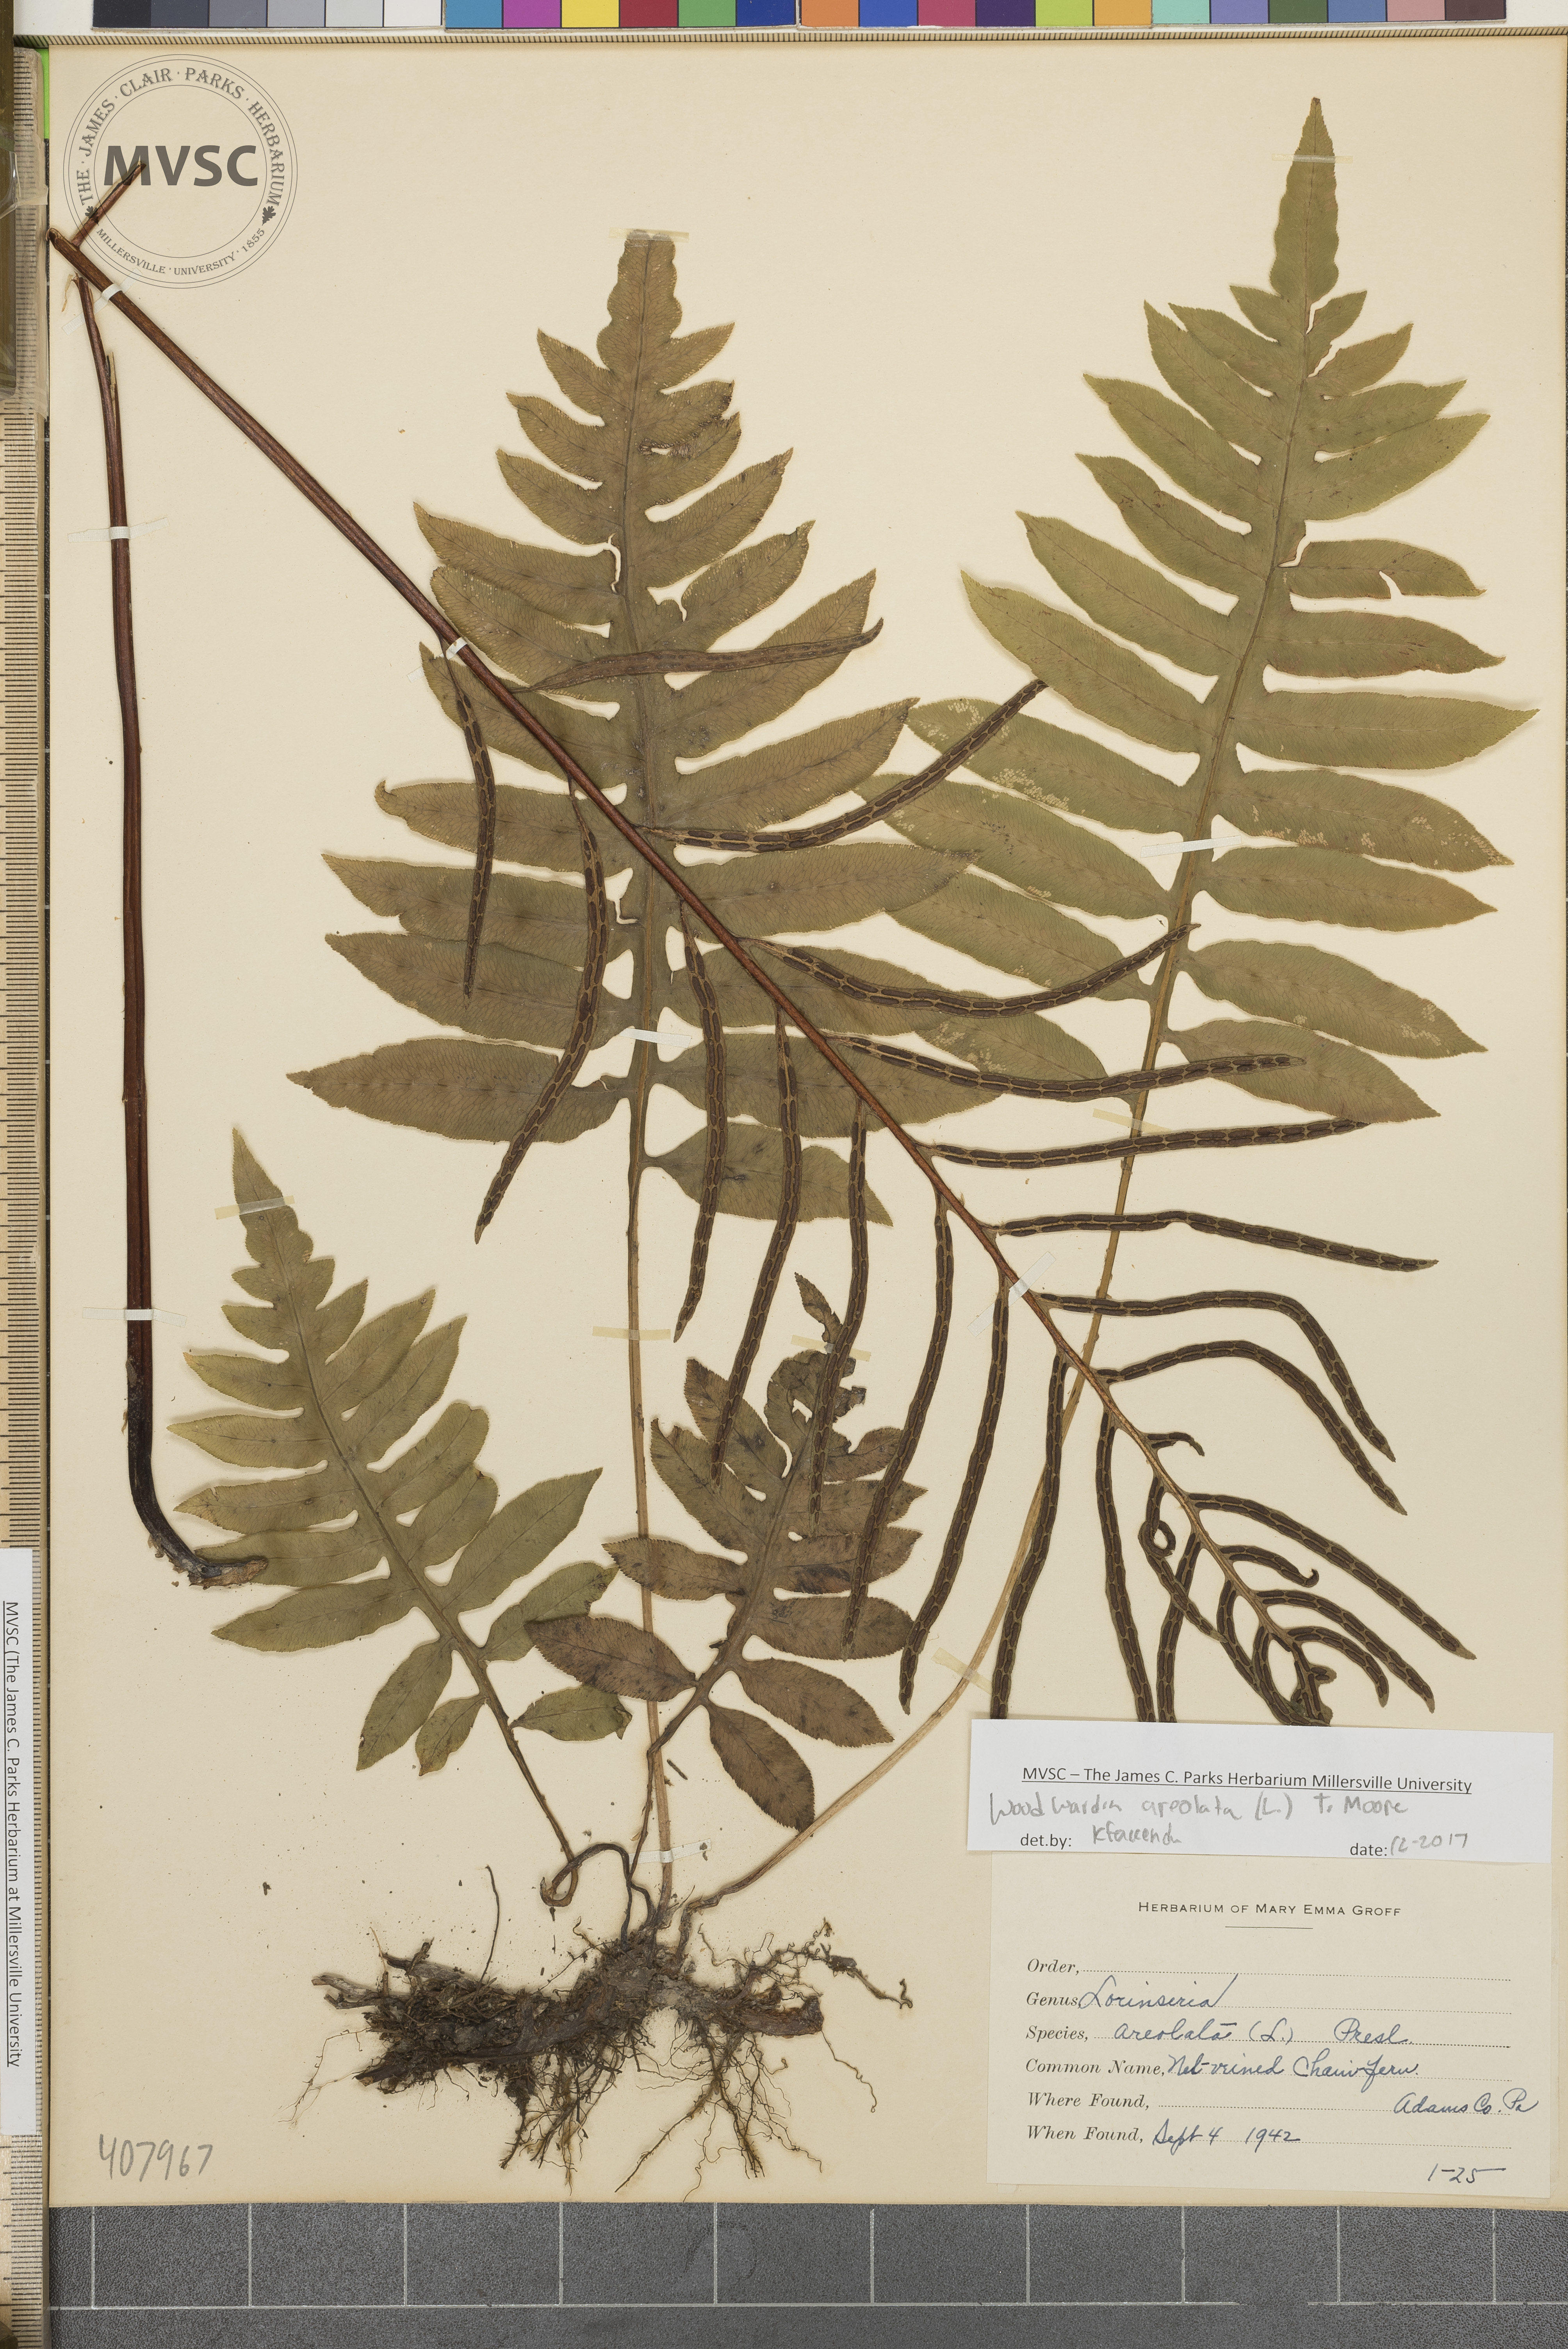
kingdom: Plantae
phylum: Tracheophyta
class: Polypodiopsida
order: Polypodiales
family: Blechnaceae
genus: Lorinseria
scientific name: Lorinseria areolata
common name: Dwarf chain fern
